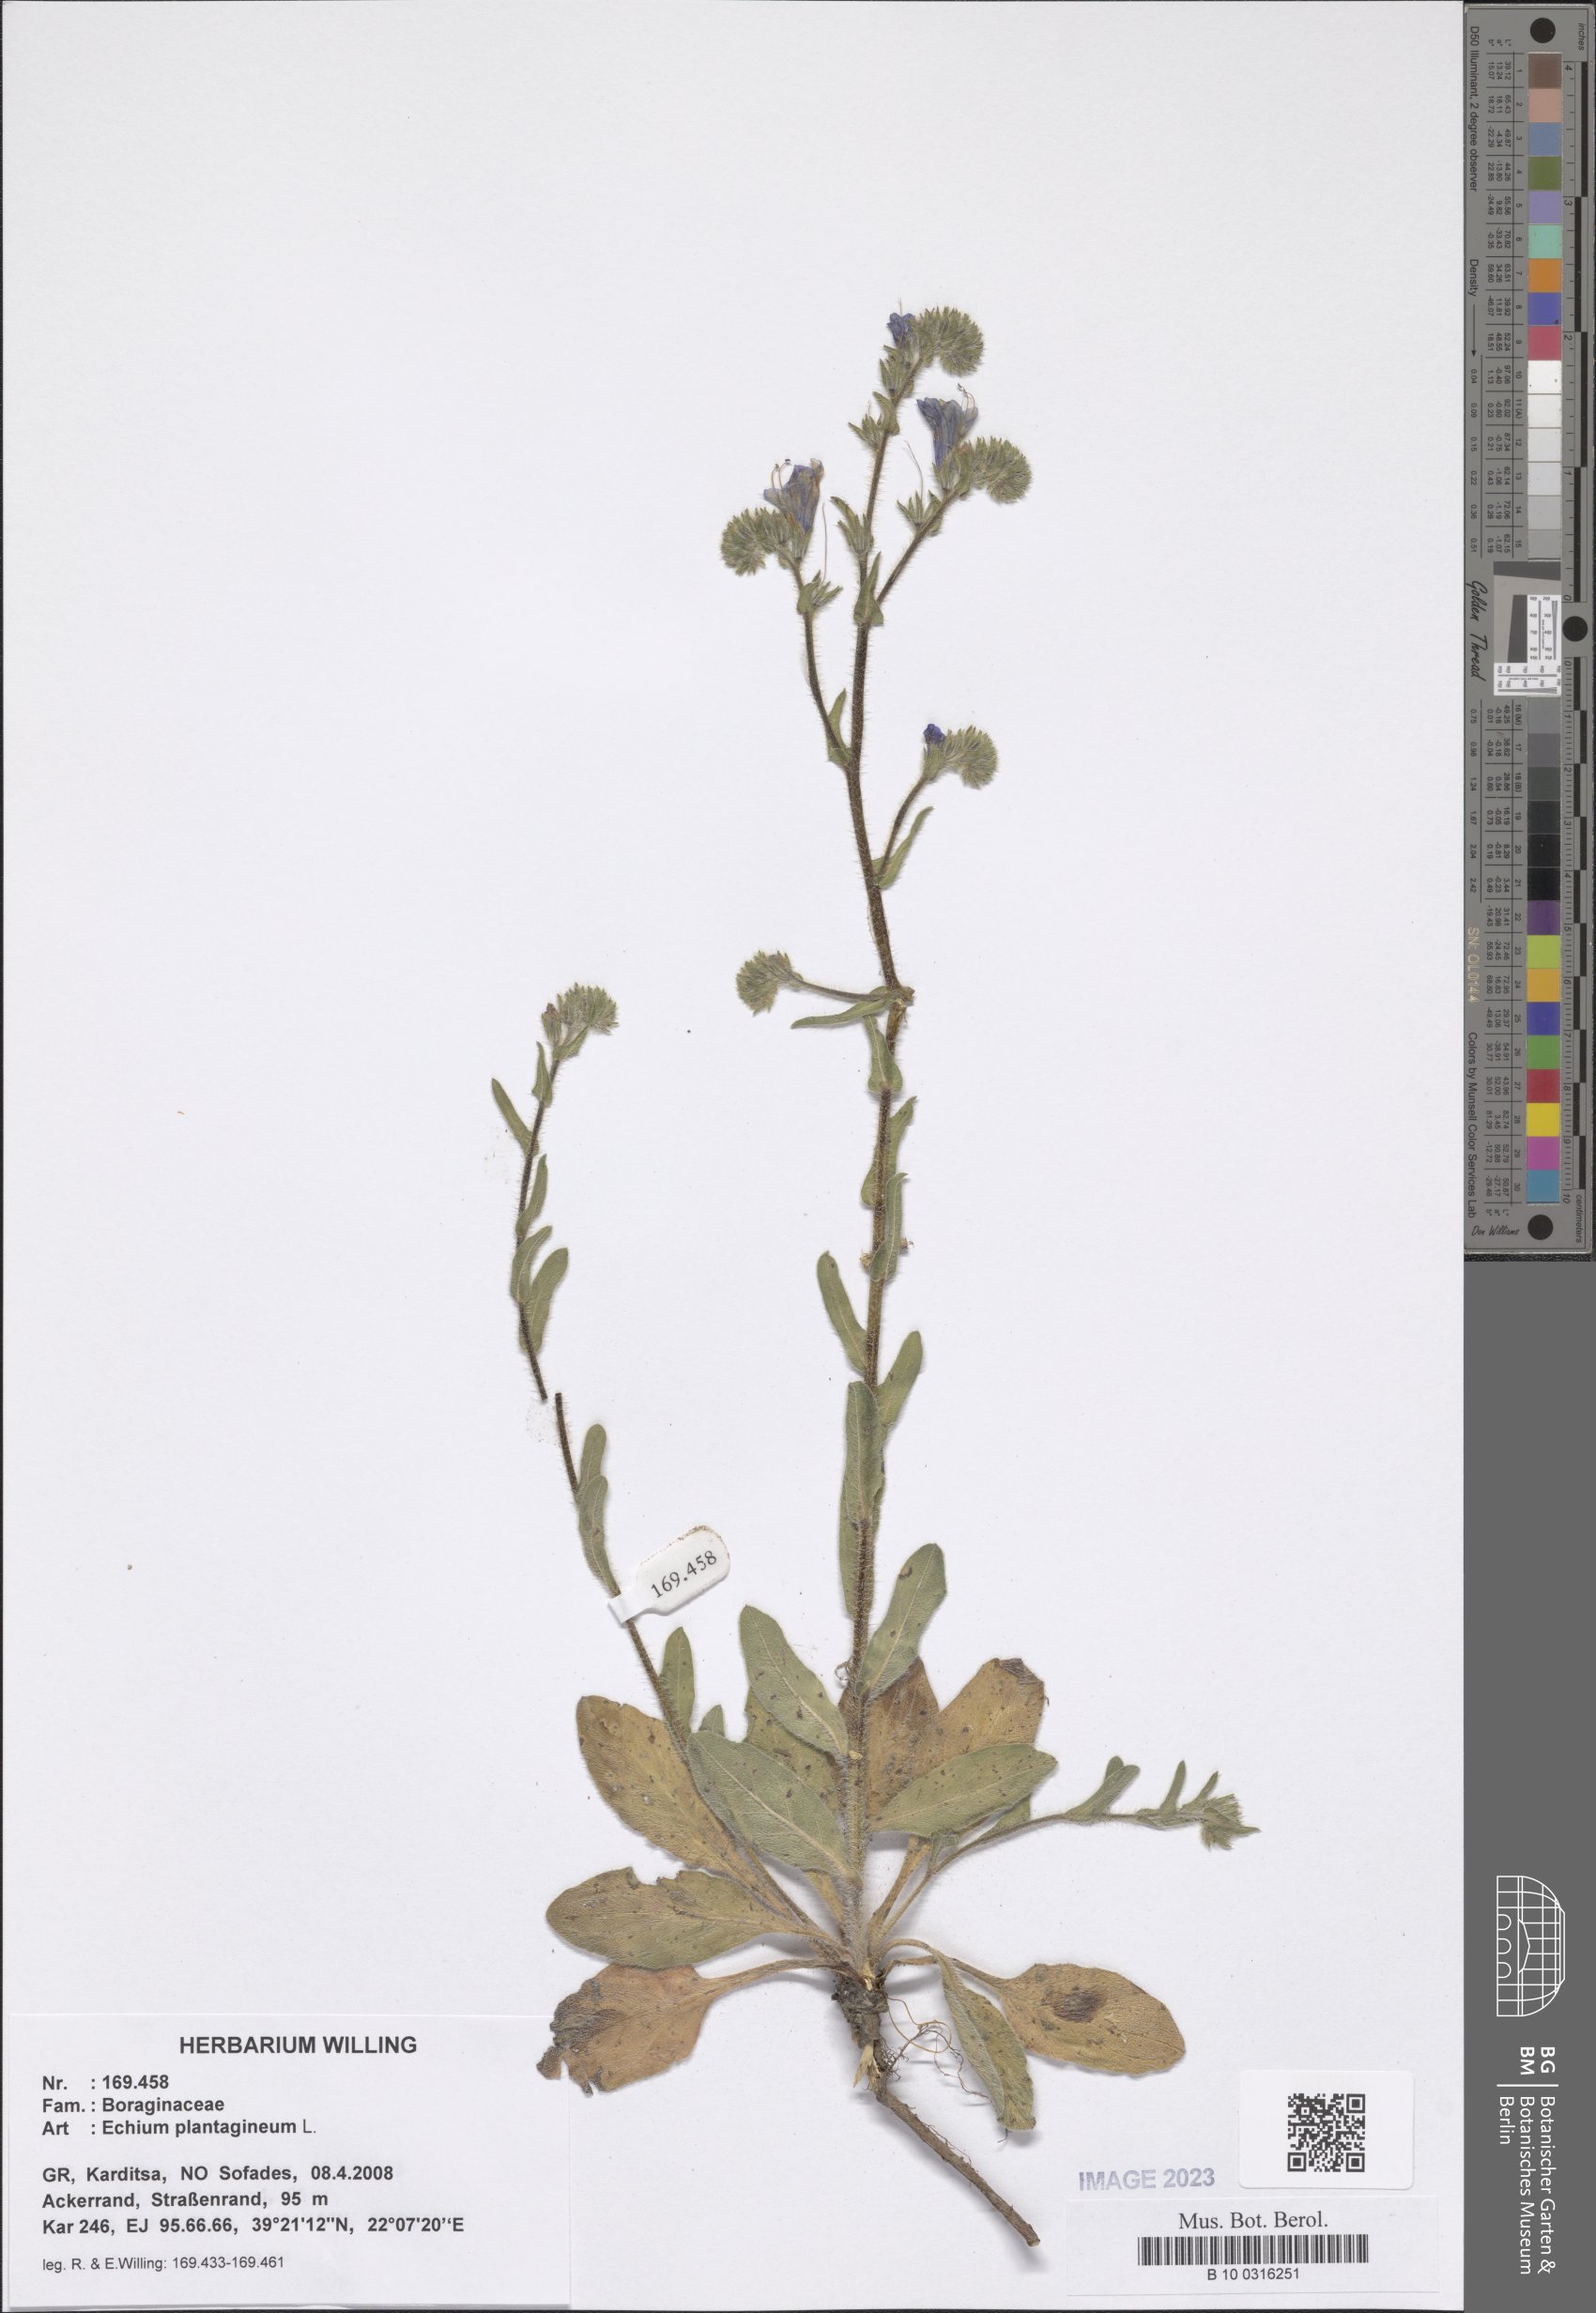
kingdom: Plantae
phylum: Tracheophyta
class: Magnoliopsida
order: Boraginales
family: Boraginaceae
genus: Echium
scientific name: Echium plantagineum
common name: Purple viper's-bugloss
